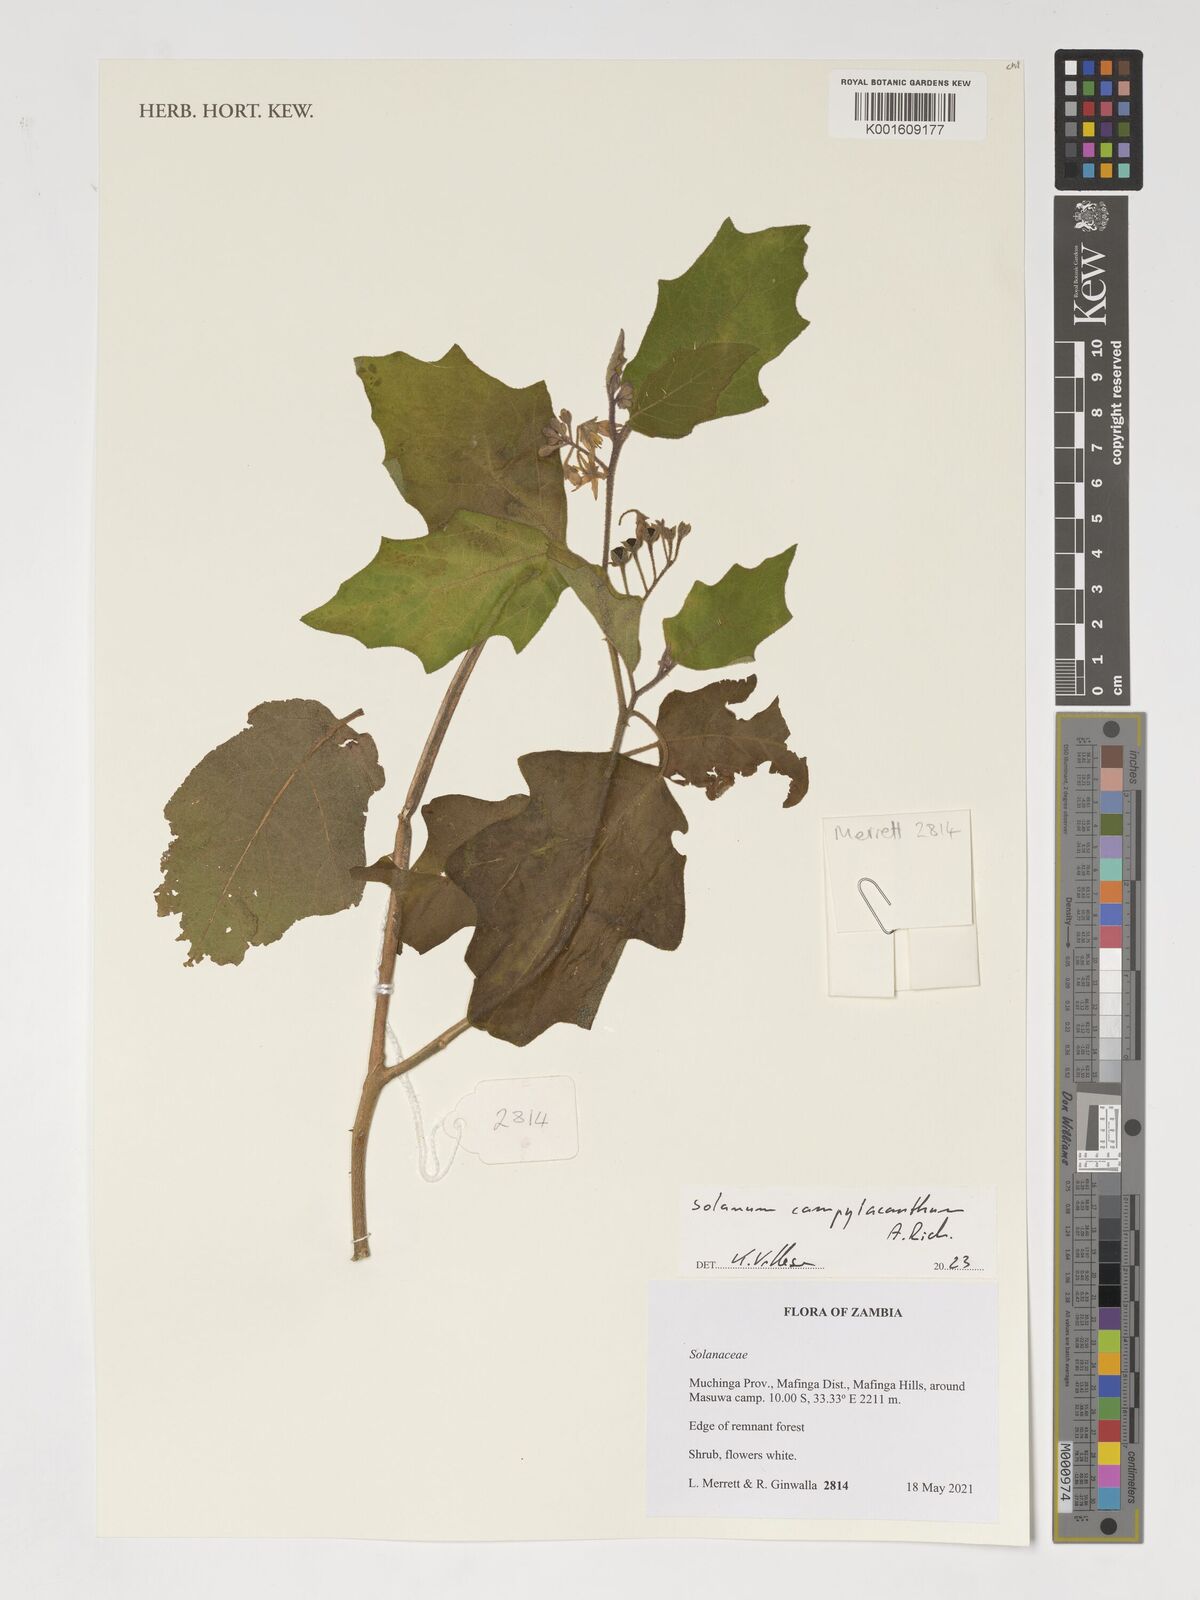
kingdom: Plantae
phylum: Tracheophyta
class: Magnoliopsida
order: Solanales
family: Solanaceae
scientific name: Solanaceae
